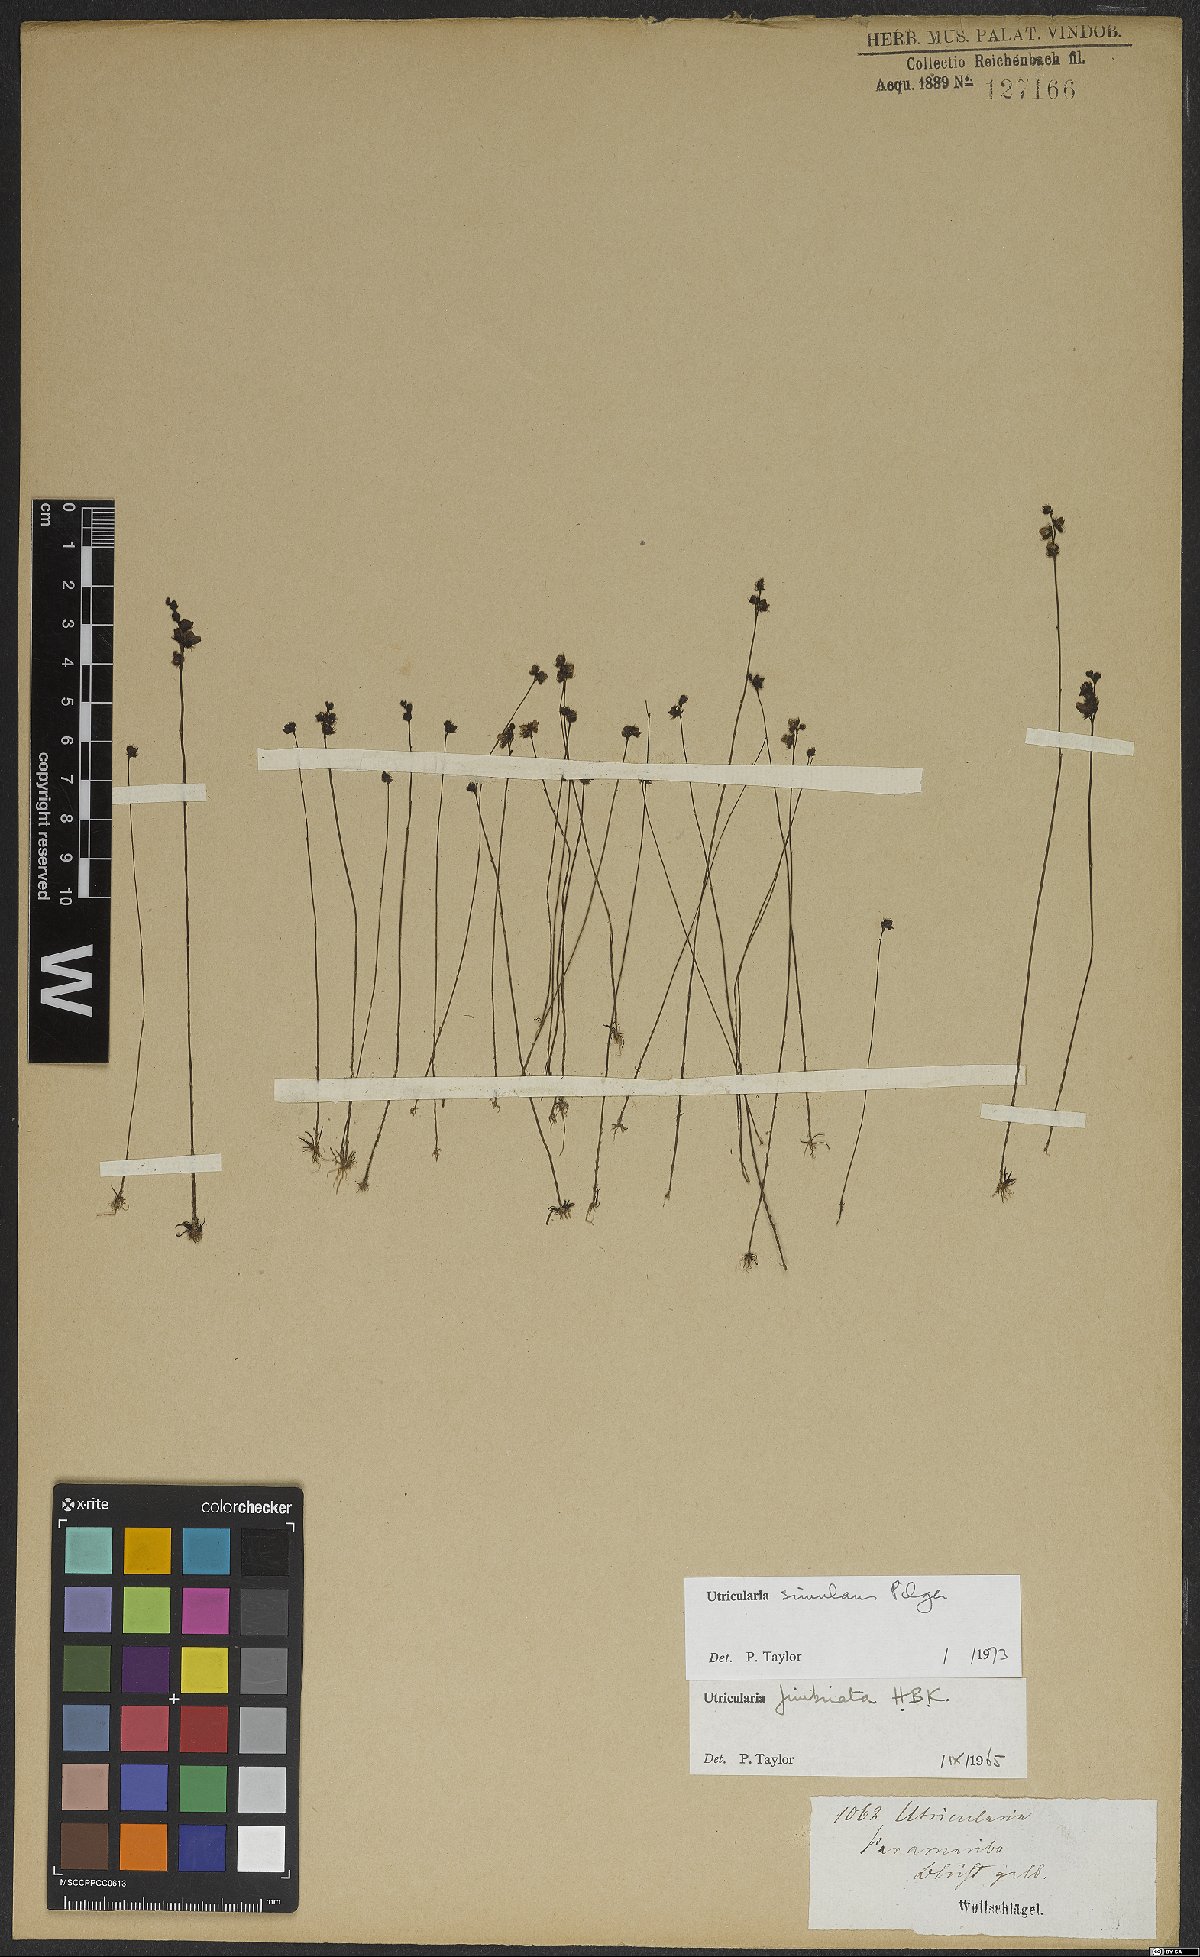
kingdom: Plantae
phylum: Tracheophyta
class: Magnoliopsida
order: Lamiales
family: Lentibulariaceae
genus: Utricularia
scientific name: Utricularia simulans
